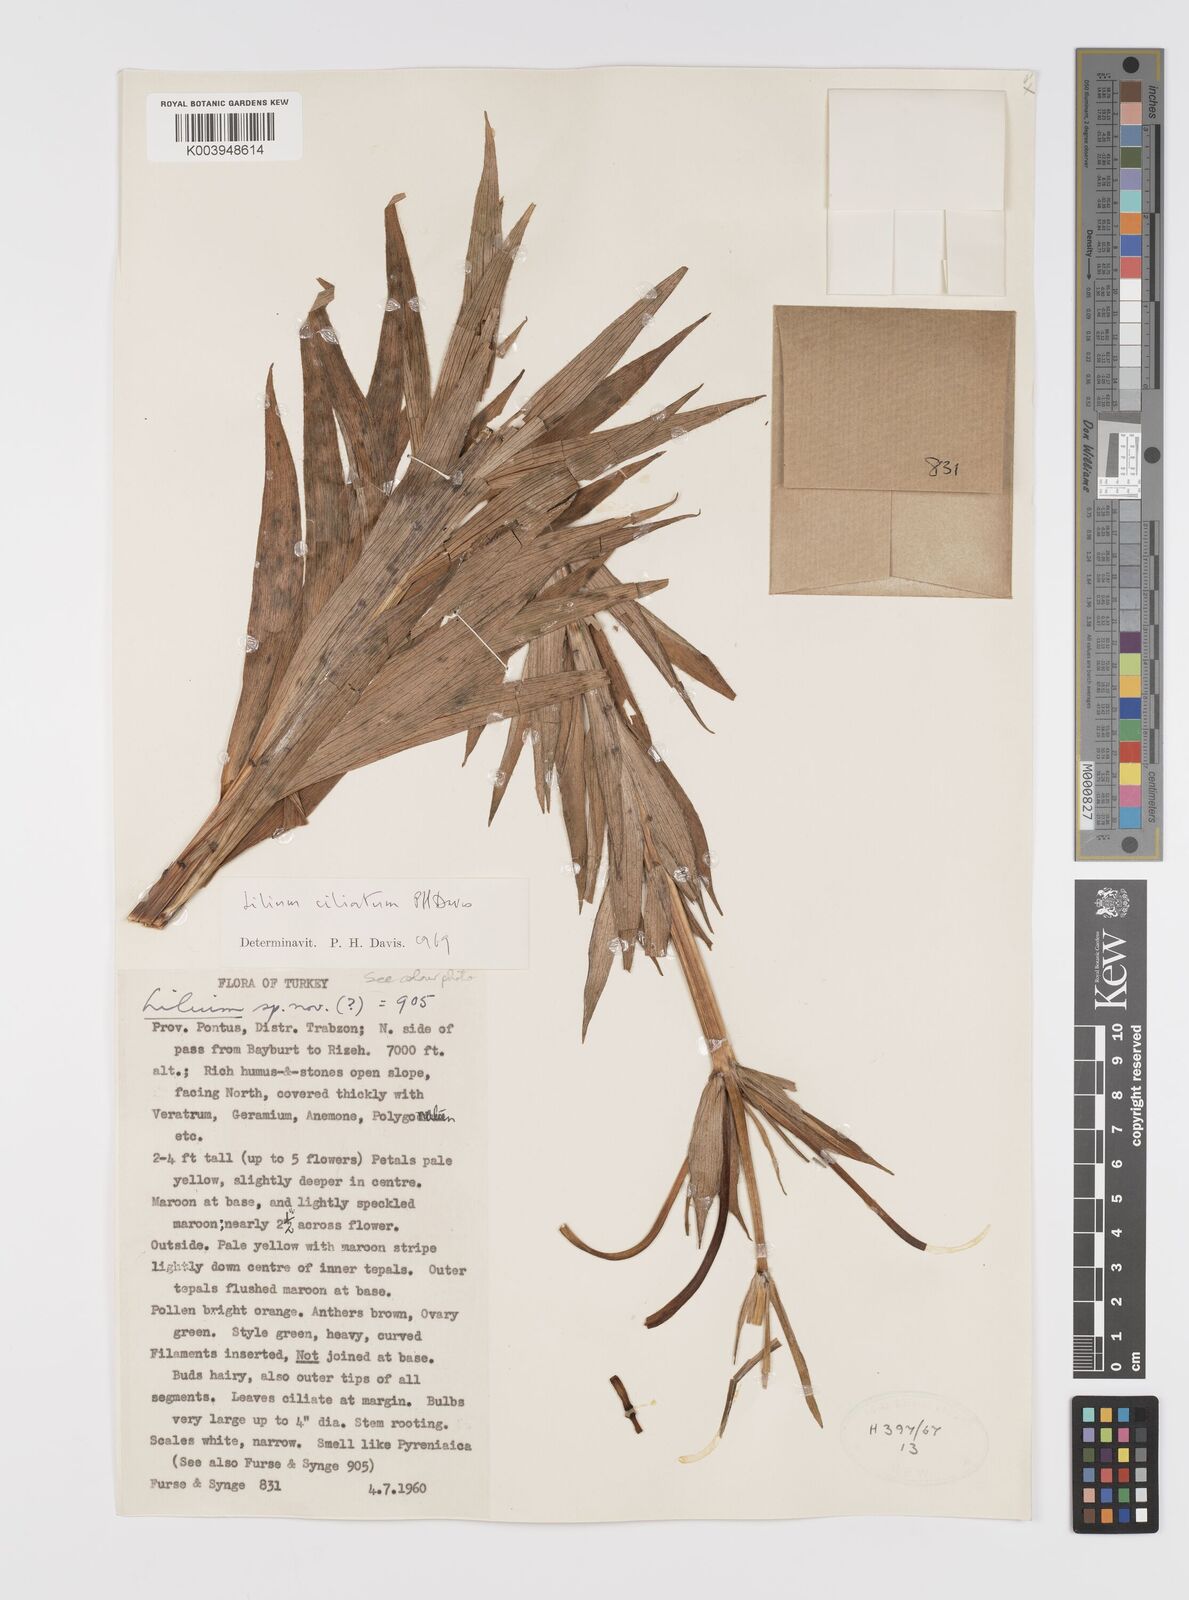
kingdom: Plantae
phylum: Tracheophyta
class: Liliopsida
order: Liliales
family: Liliaceae
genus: Lilium
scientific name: Lilium ciliatum
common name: Ciliate lily
